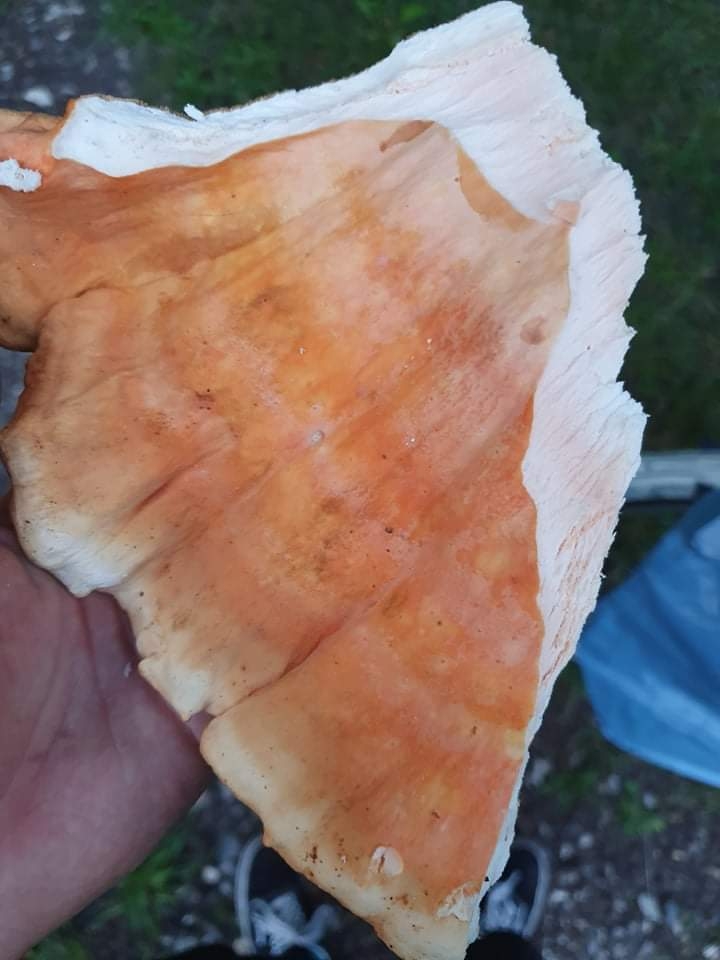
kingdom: Fungi
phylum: Basidiomycota
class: Agaricomycetes
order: Polyporales
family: Laetiporaceae
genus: Laetiporus
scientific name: Laetiporus sulphureus
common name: svovlporesvamp
